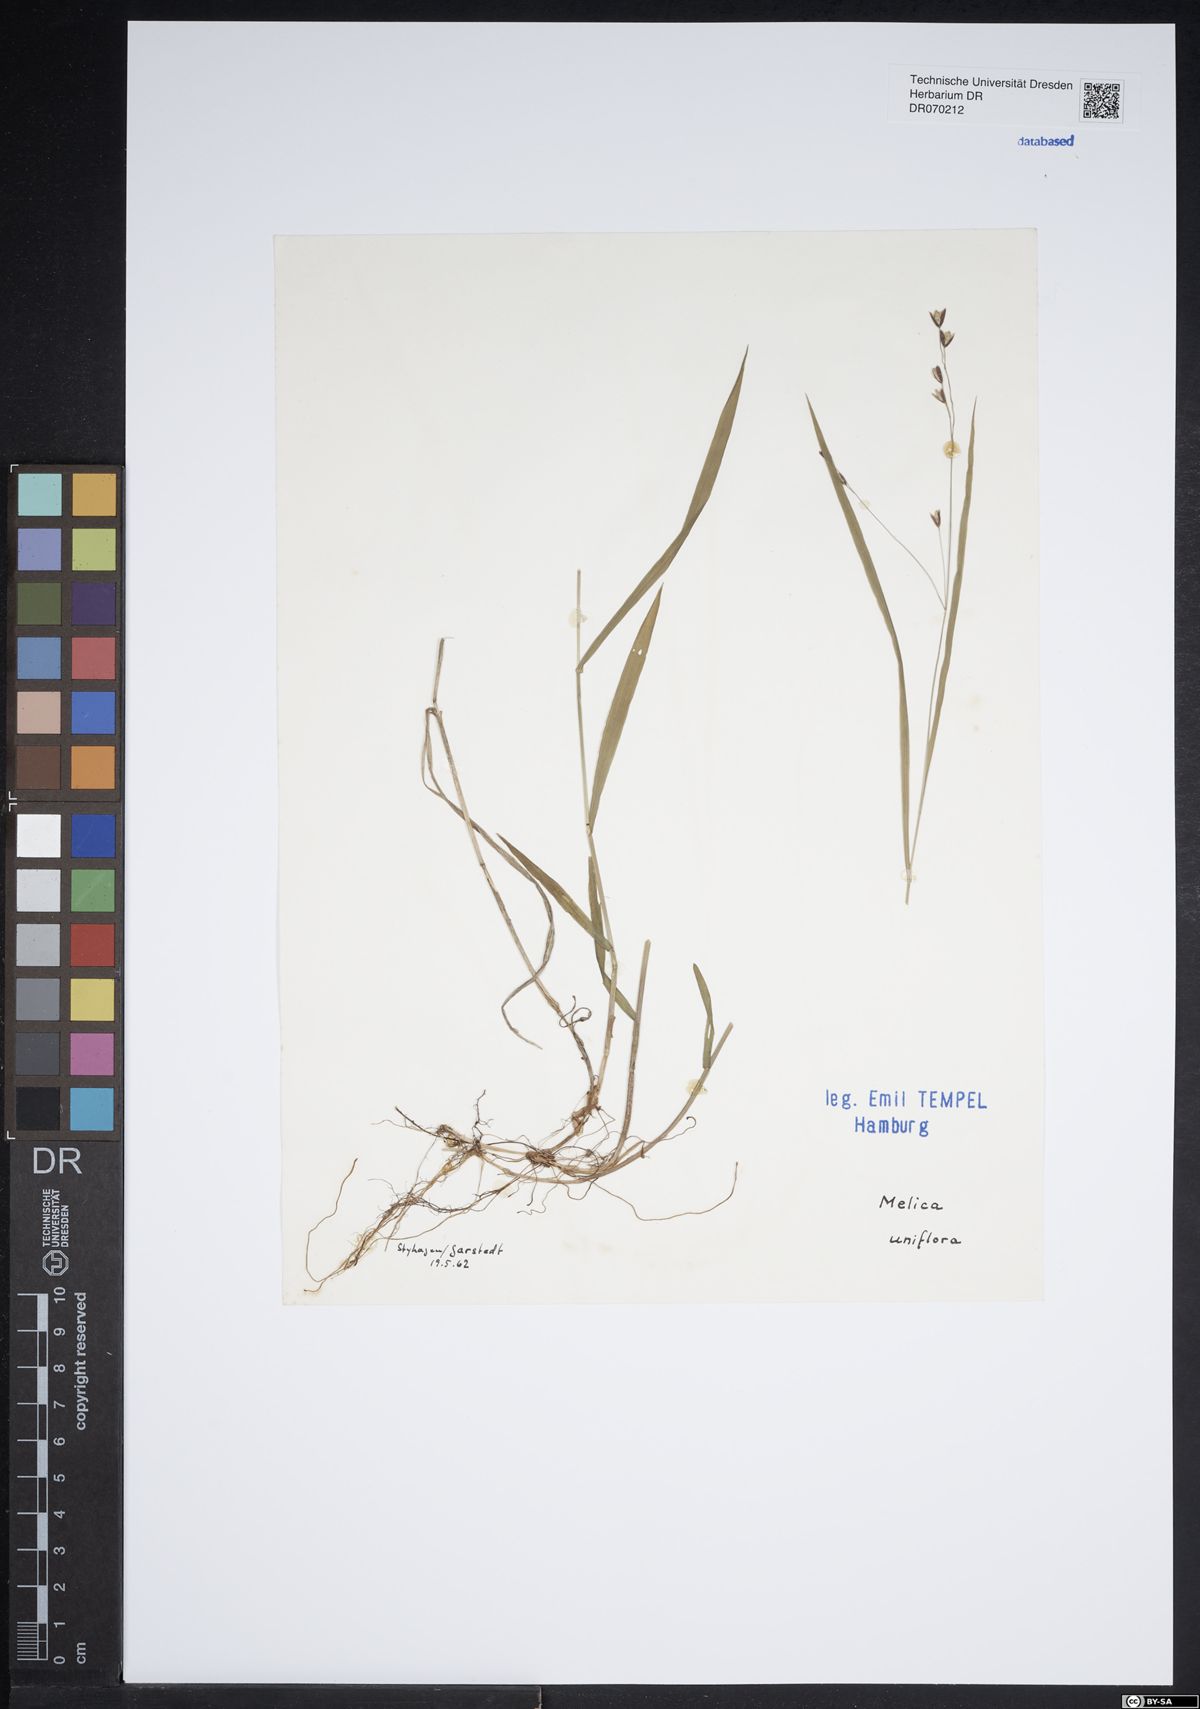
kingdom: Plantae
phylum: Tracheophyta
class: Liliopsida
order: Poales
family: Poaceae
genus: Melica
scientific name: Melica uniflora
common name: Wood melick
